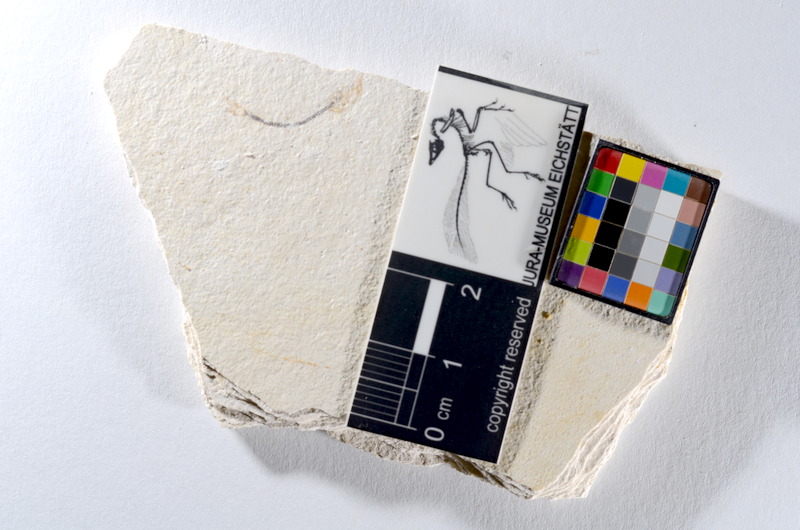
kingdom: Animalia
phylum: Chordata
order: Salmoniformes
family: Orthogonikleithridae
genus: Orthogonikleithrus
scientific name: Orthogonikleithrus hoelli
